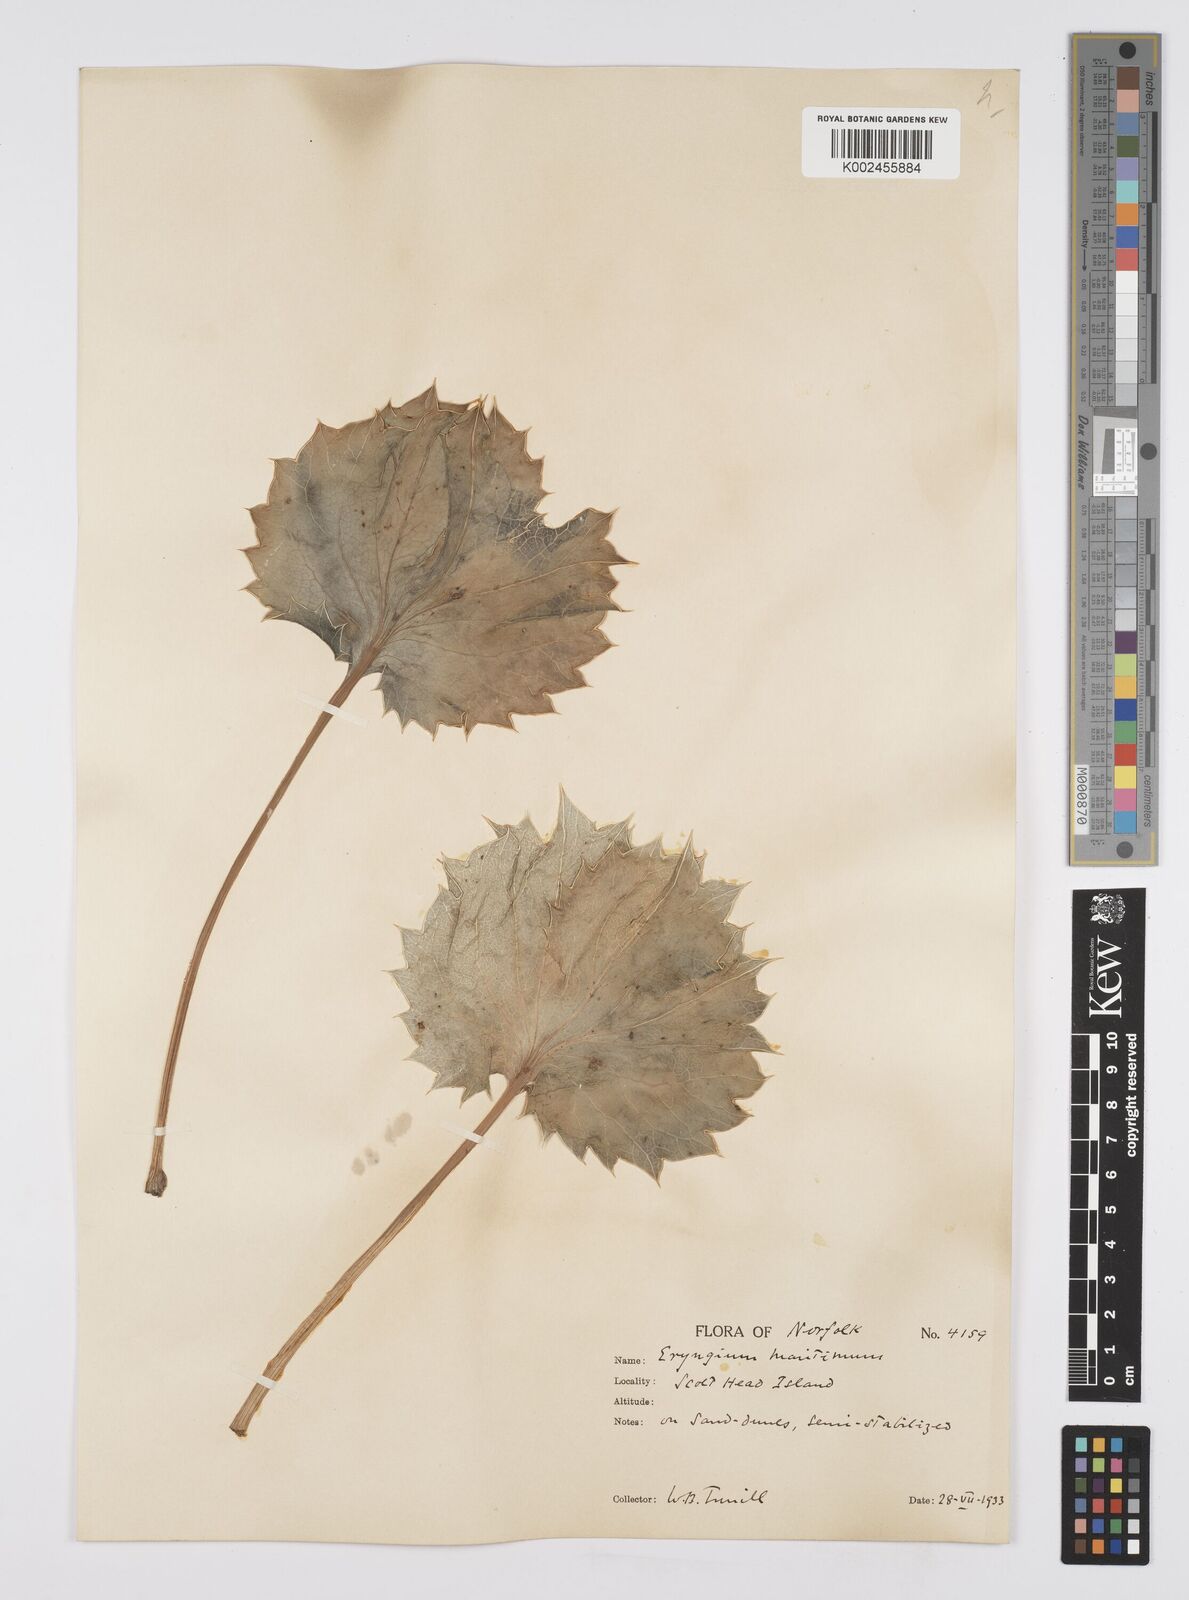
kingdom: Plantae
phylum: Tracheophyta
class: Magnoliopsida
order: Apiales
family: Apiaceae
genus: Eryngium
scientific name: Eryngium maritimum
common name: Sea-holly
